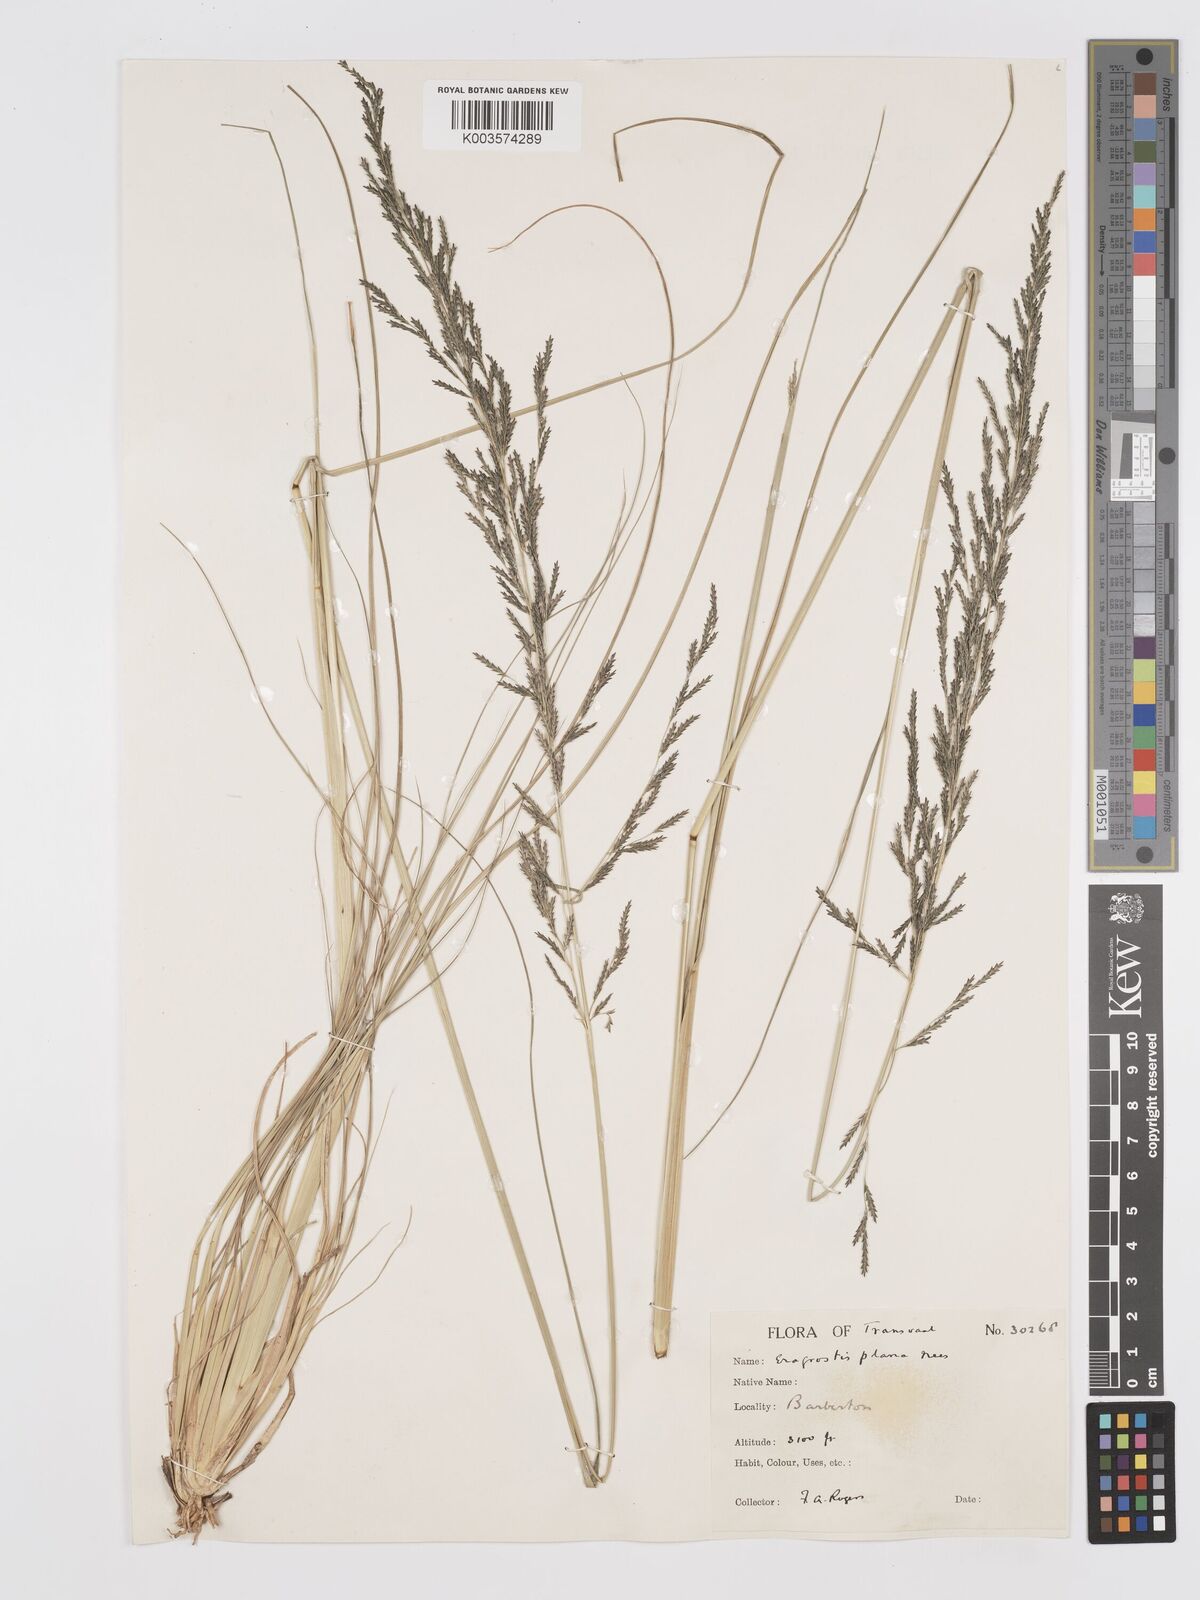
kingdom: Plantae
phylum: Tracheophyta
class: Liliopsida
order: Poales
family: Poaceae
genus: Eragrostis
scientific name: Eragrostis plana
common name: South african lovegrass
